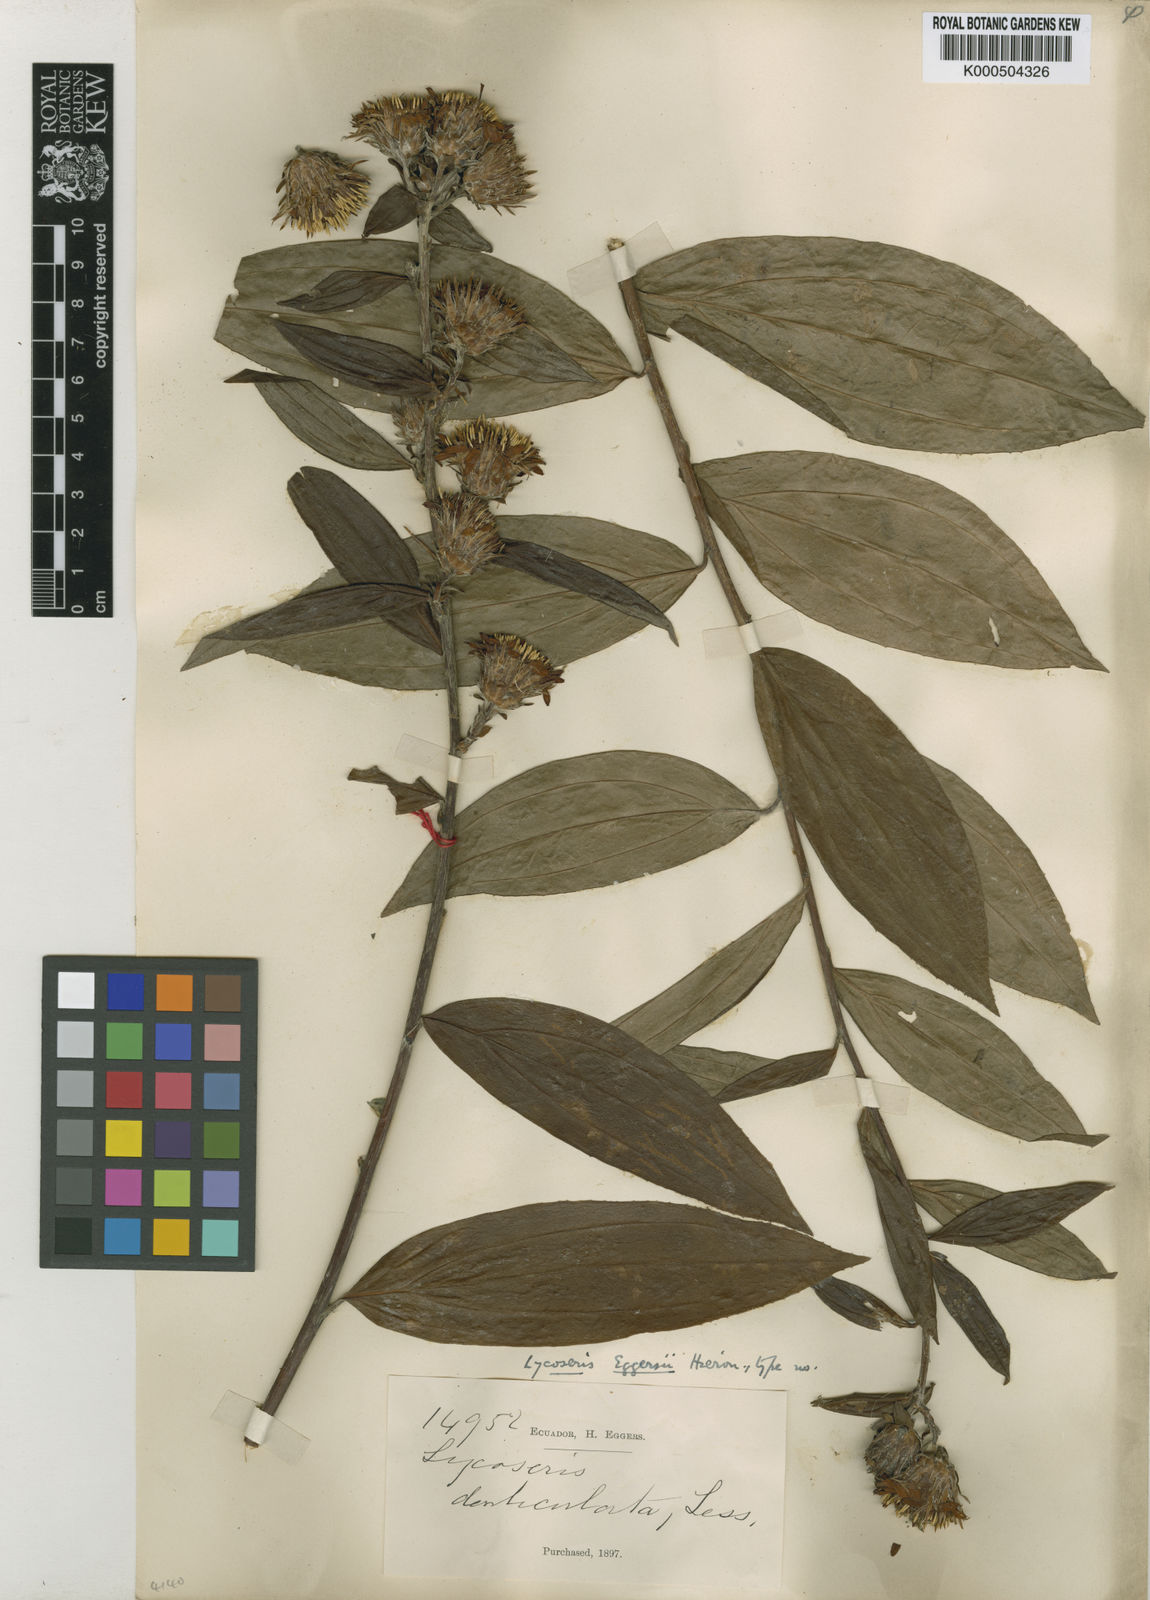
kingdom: Plantae
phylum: Tracheophyta
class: Magnoliopsida
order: Asterales
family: Asteraceae
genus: Lycoseris
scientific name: Lycoseris eggersii
